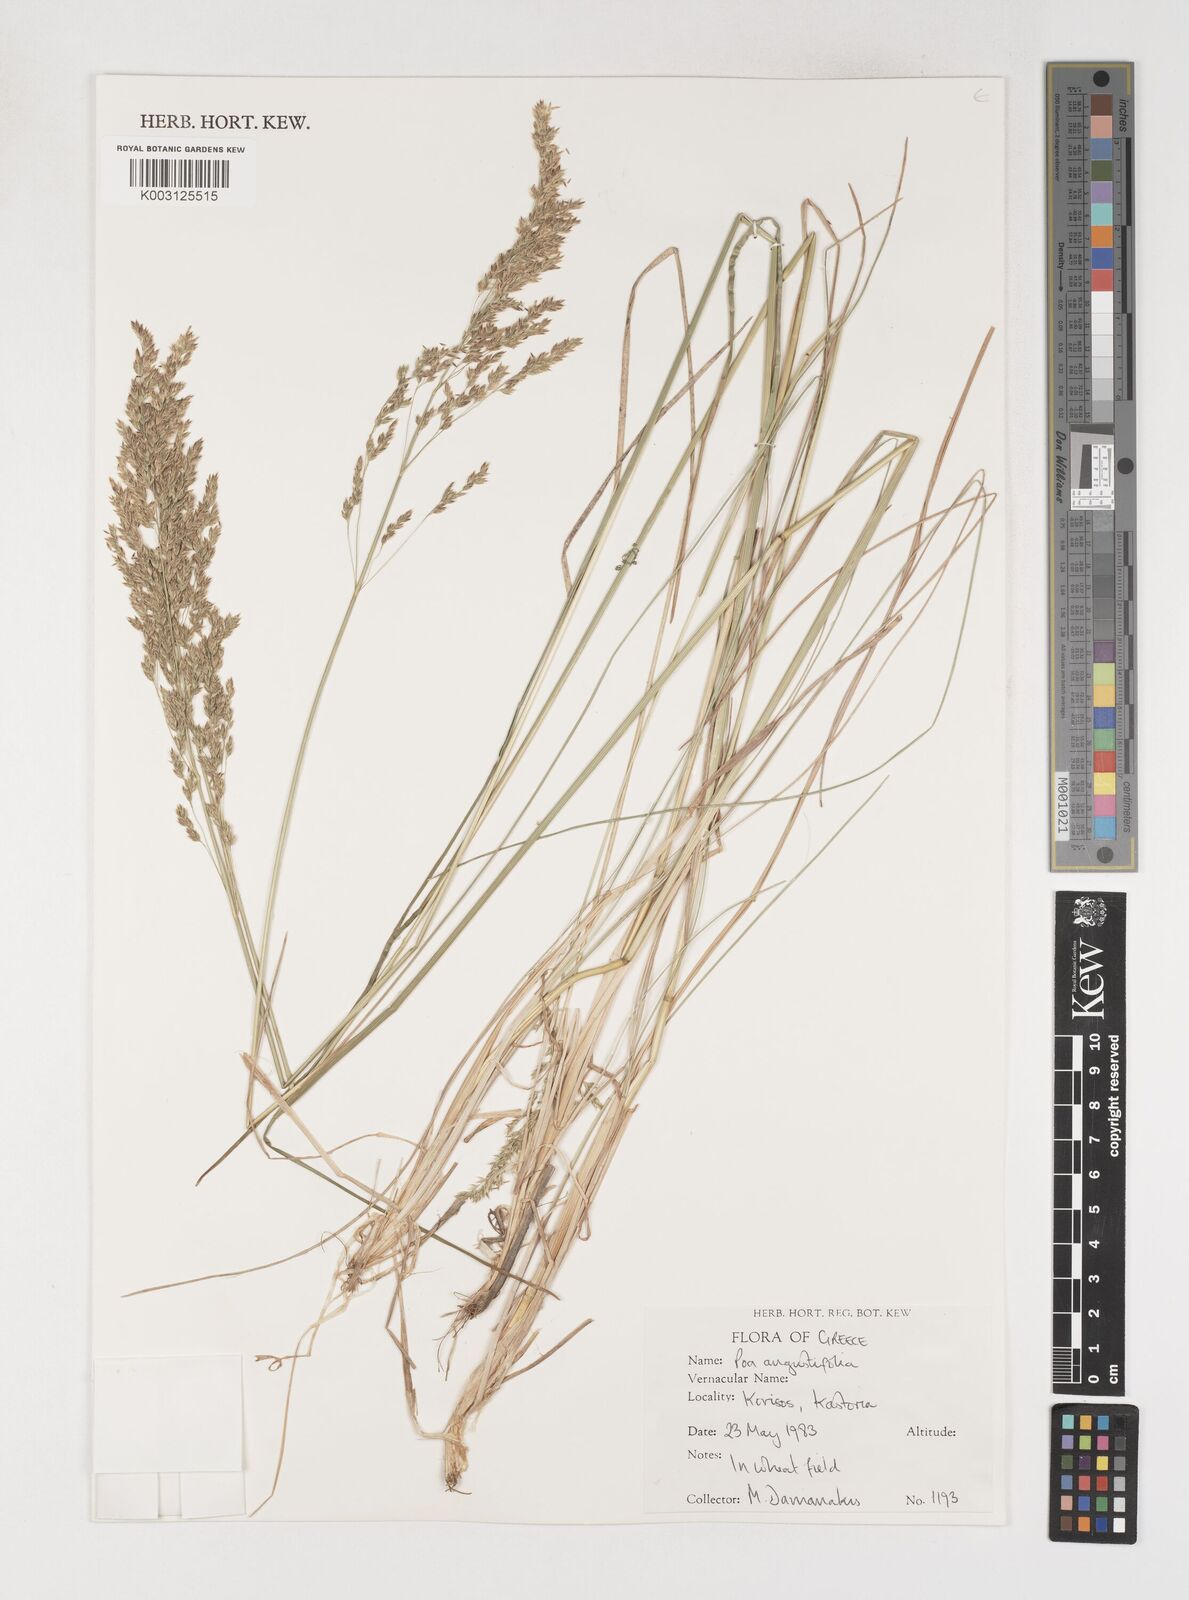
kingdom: Plantae
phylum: Tracheophyta
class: Liliopsida
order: Poales
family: Poaceae
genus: Poa
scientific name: Poa angustifolia
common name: Narrow-leaved meadow-grass
